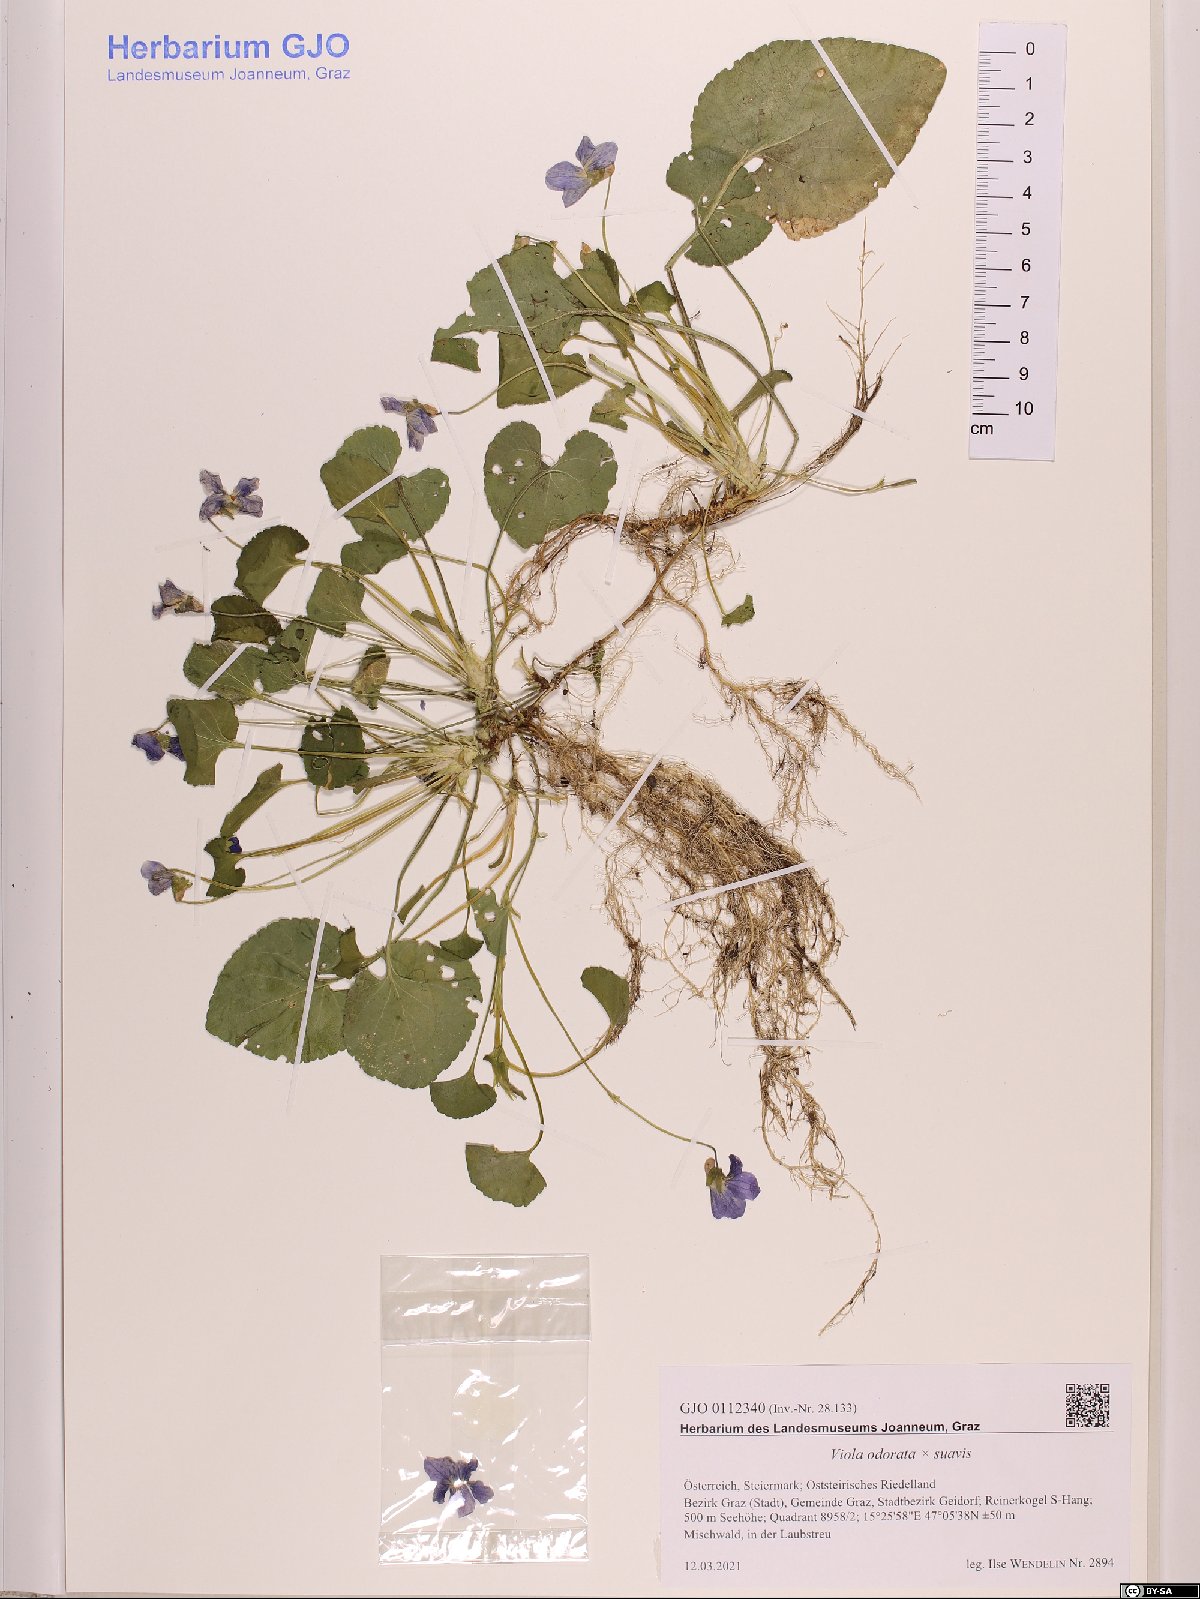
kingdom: Plantae
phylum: Tracheophyta
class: Magnoliopsida
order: Malpighiales
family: Violaceae
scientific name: Violaceae
